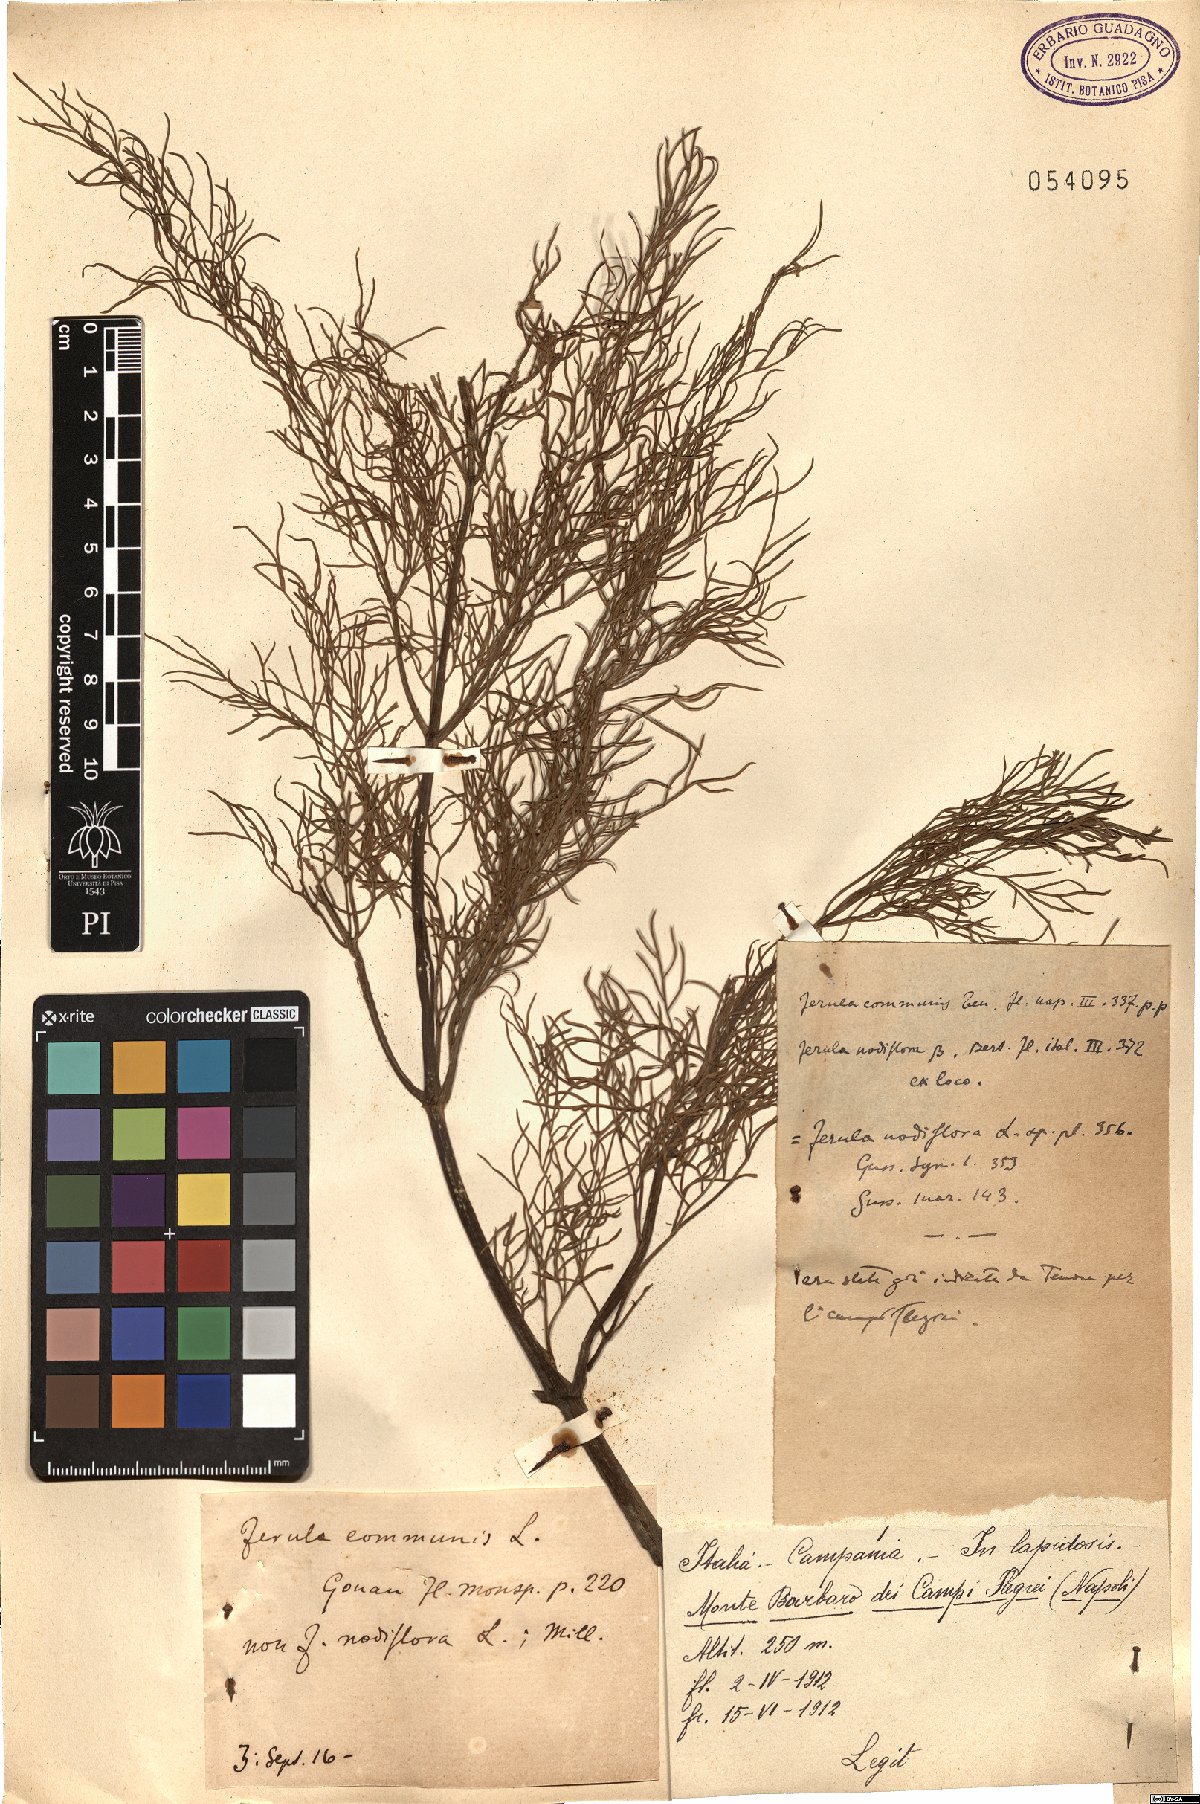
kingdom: Plantae
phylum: Tracheophyta
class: Magnoliopsida
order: Apiales
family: Apiaceae
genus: Ferula
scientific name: Ferula communis
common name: Giant fennel
